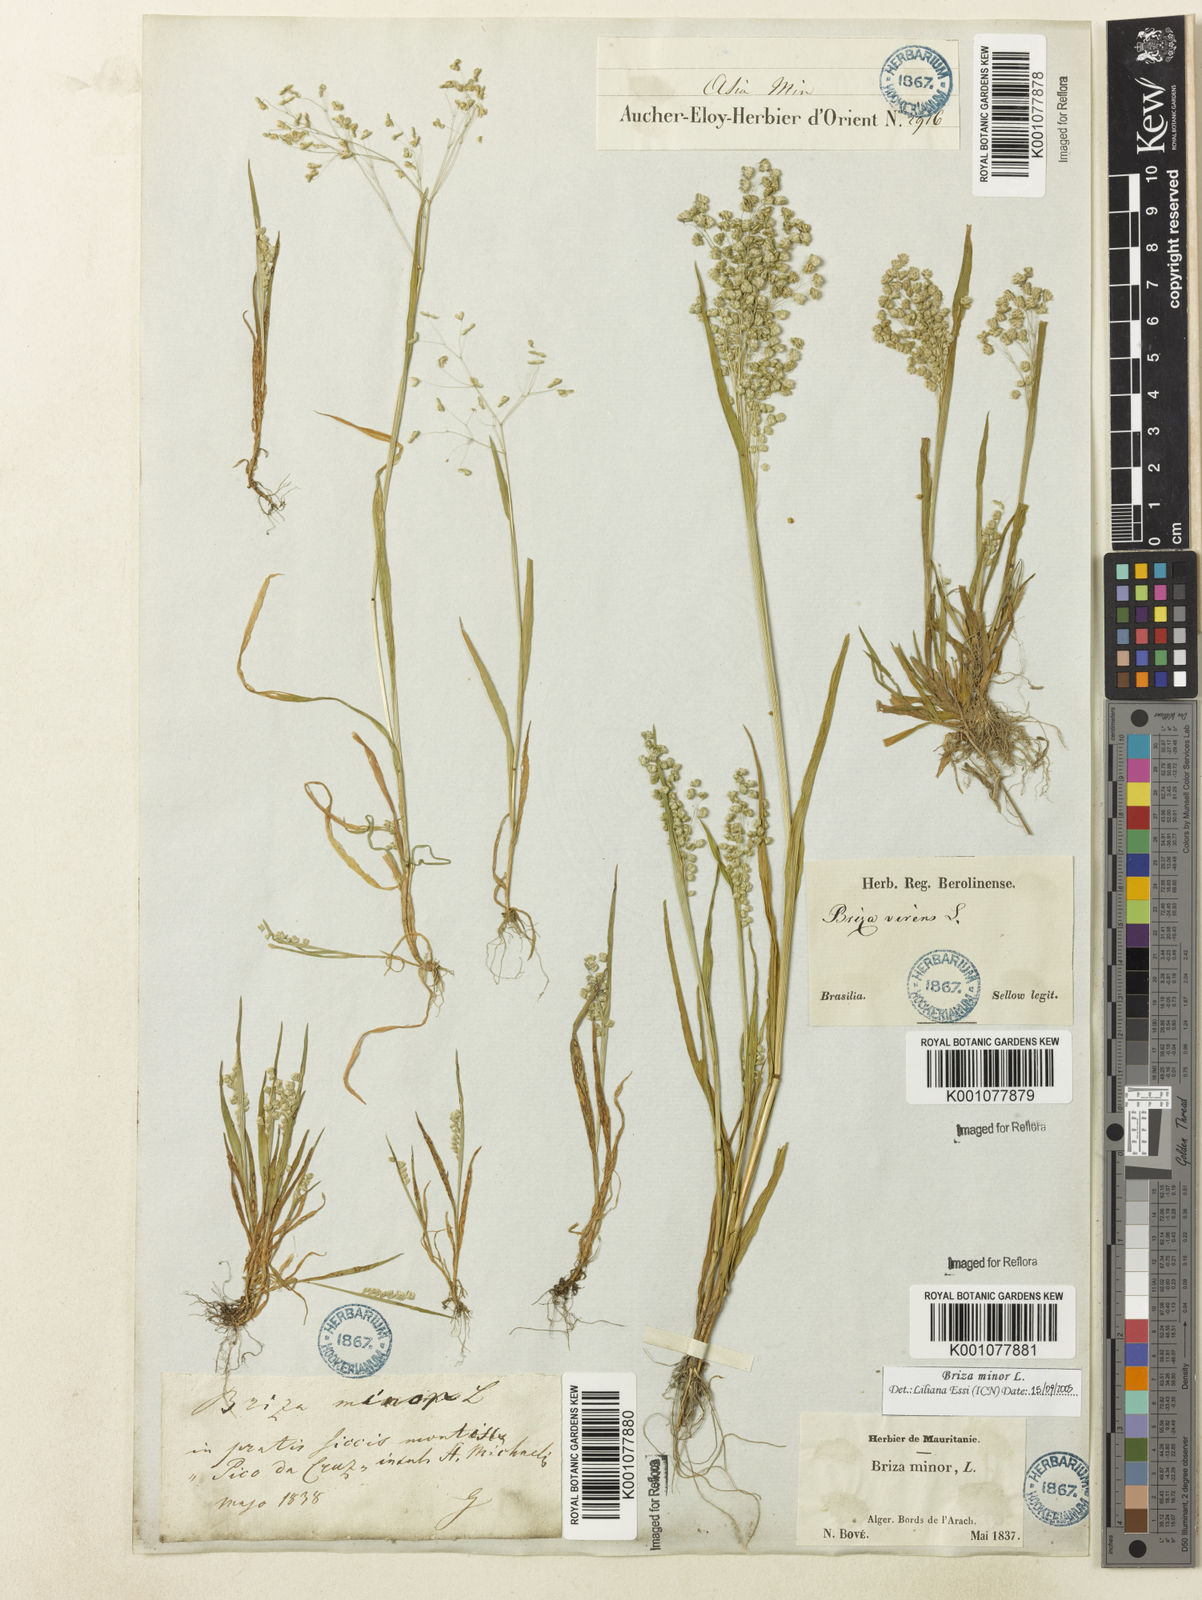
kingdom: Plantae
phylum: Tracheophyta
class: Liliopsida
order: Poales
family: Poaceae
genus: Briza
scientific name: Briza minor
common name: Lesser quaking-grass
